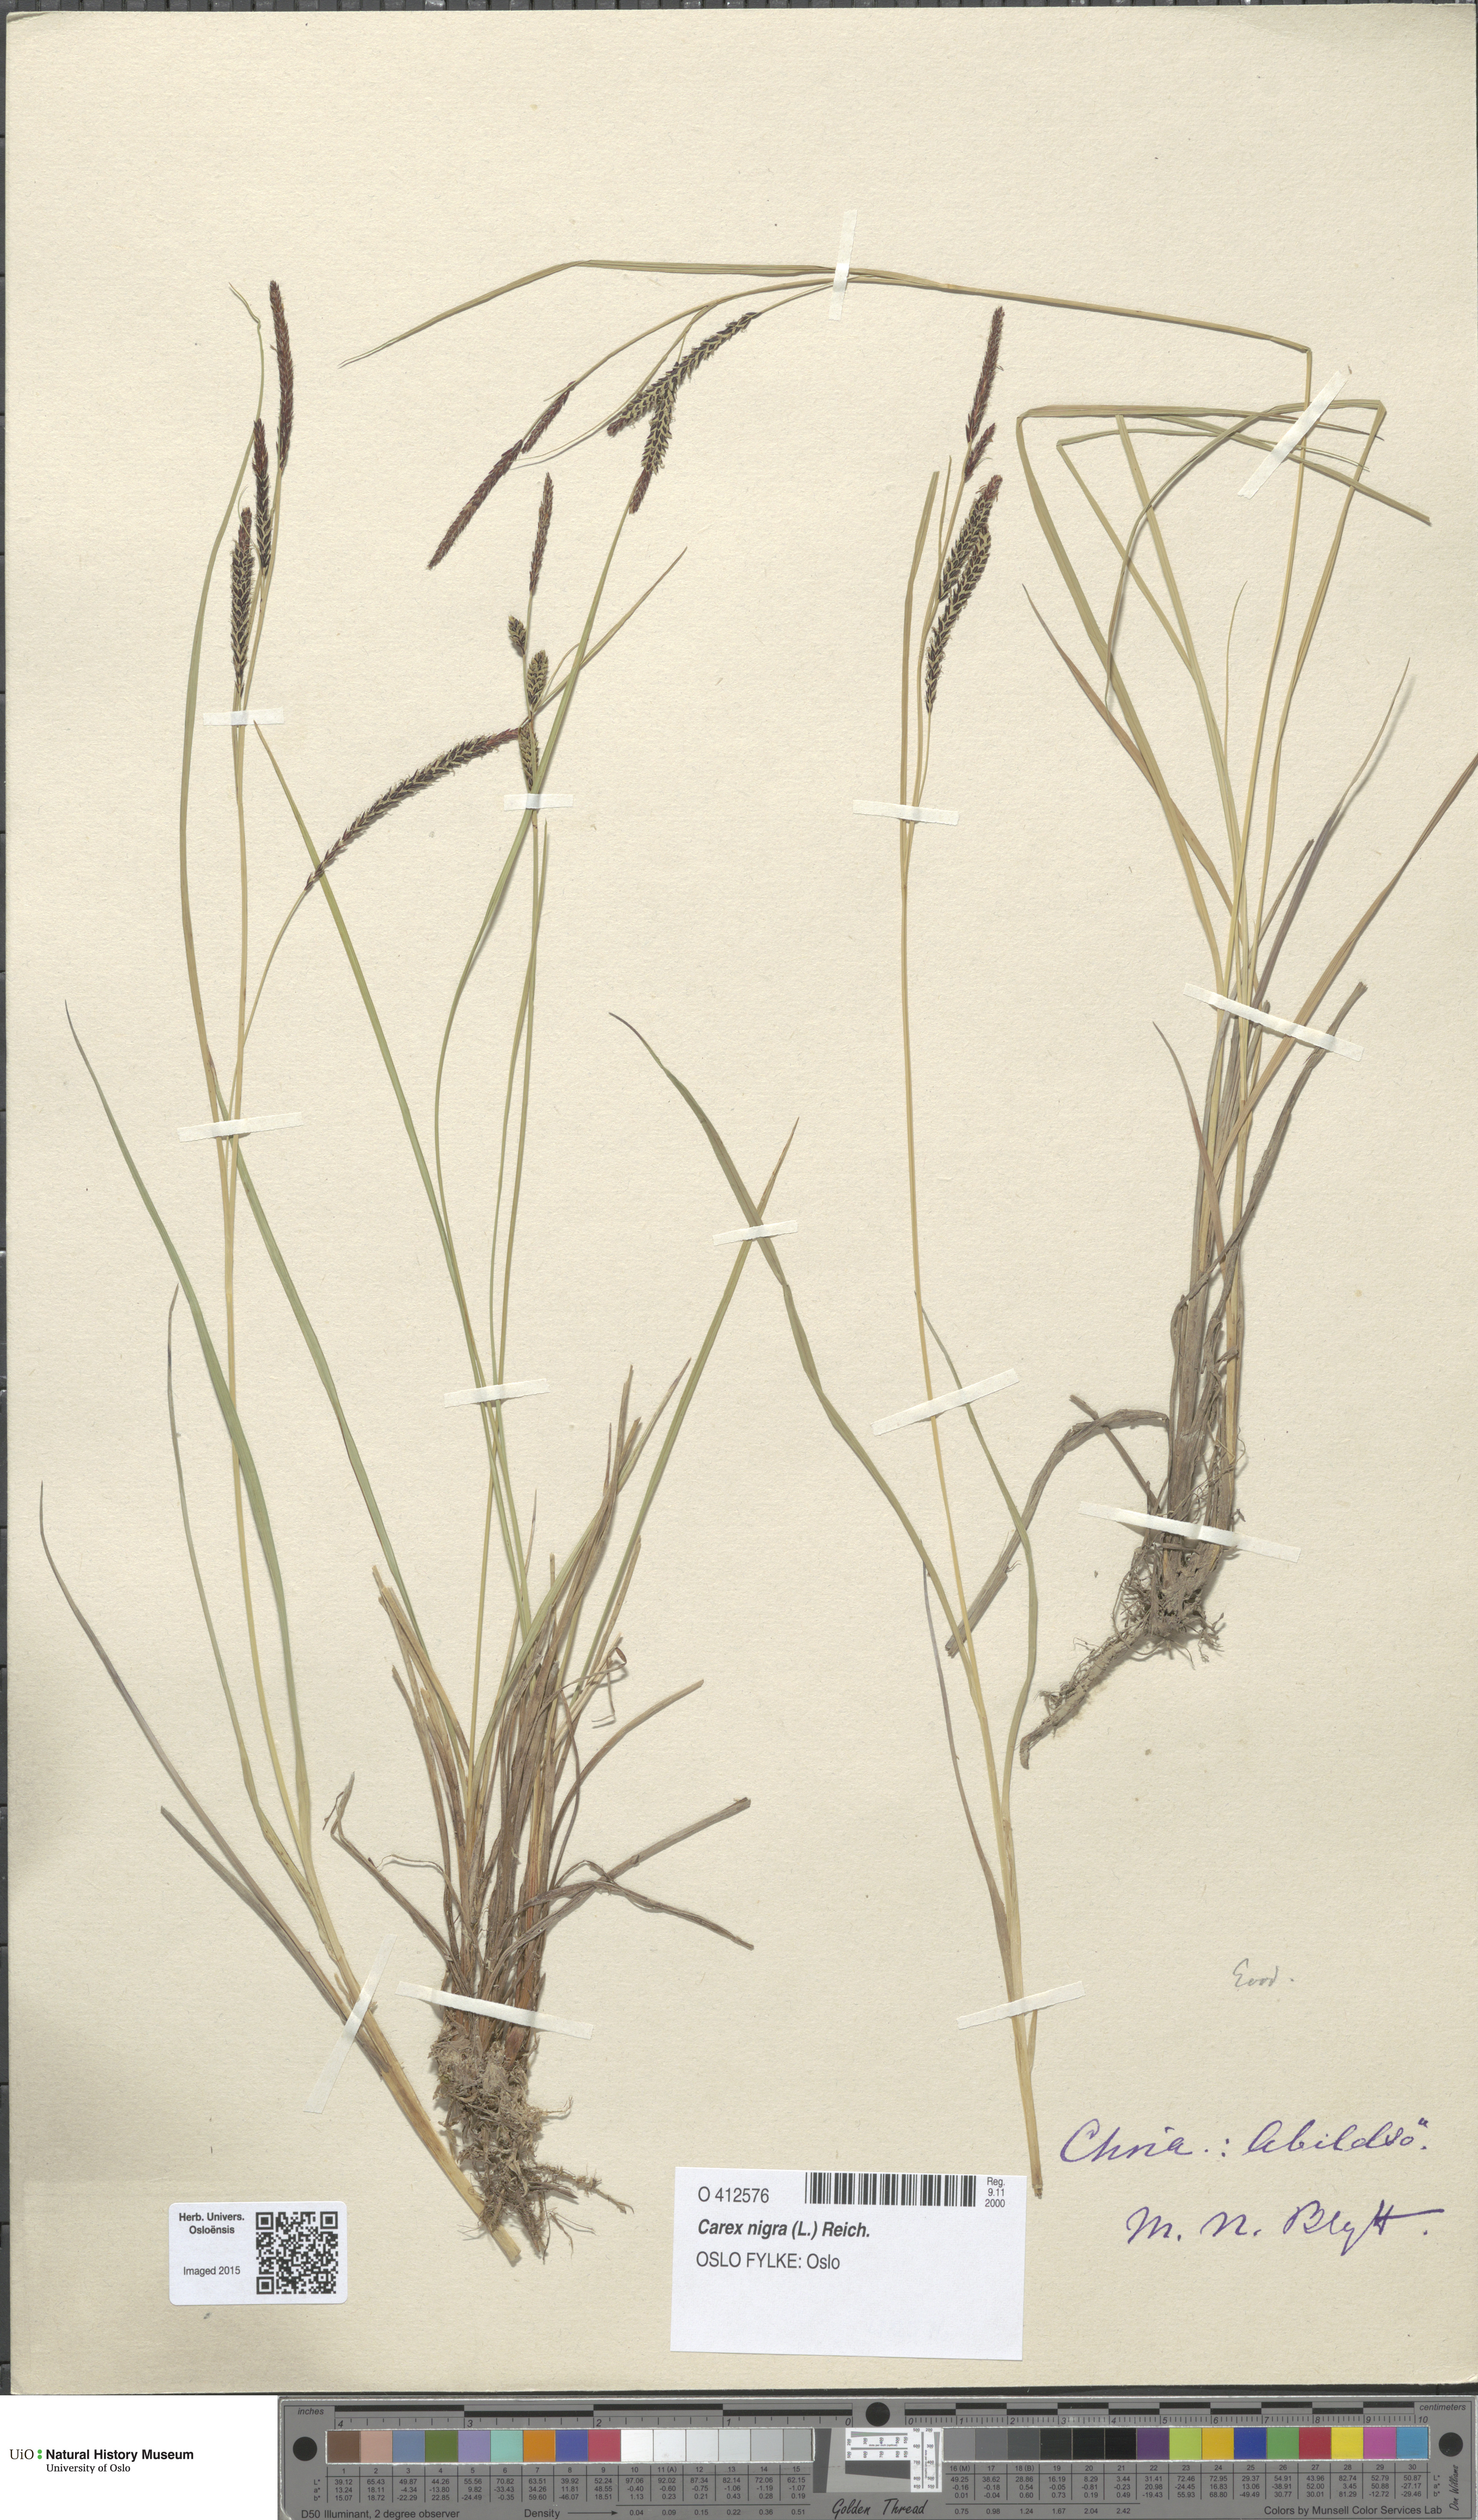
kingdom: Plantae
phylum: Tracheophyta
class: Liliopsida
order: Poales
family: Cyperaceae
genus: Carex
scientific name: Carex nigra
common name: Common sedge
